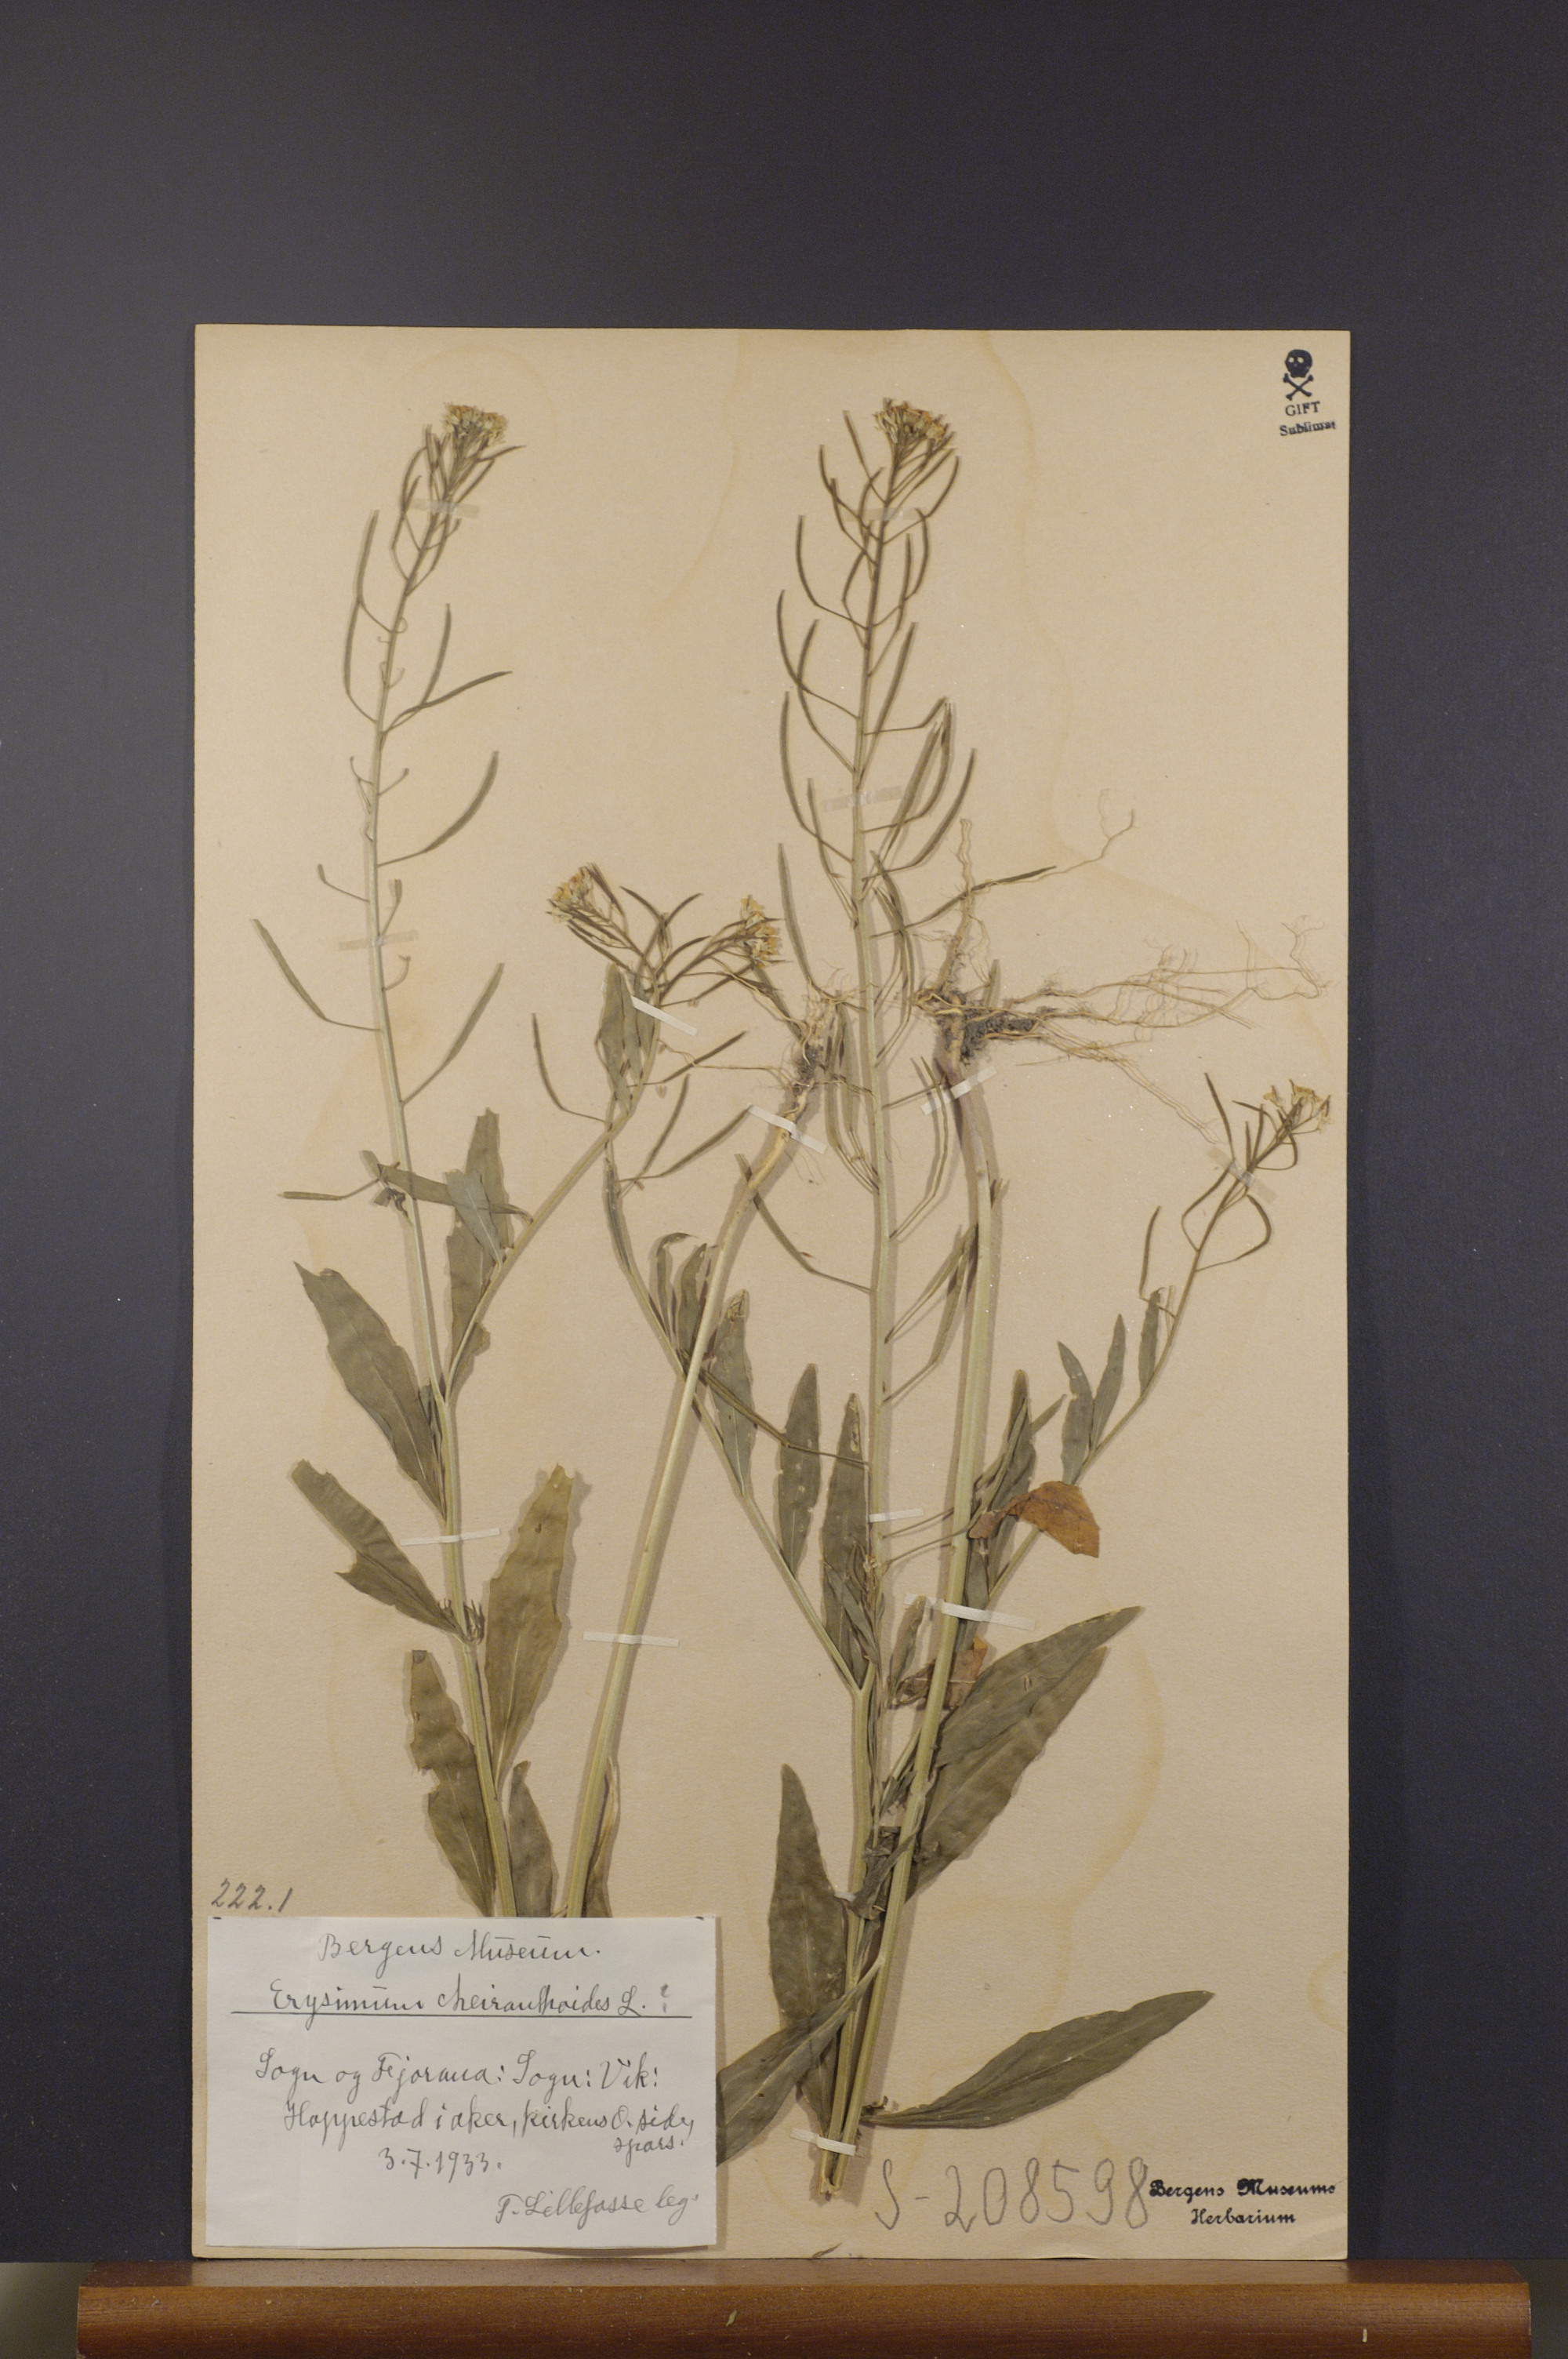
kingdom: Plantae
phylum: Tracheophyta
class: Magnoliopsida
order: Brassicales
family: Brassicaceae
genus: Erysimum
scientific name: Erysimum cheiranthoides
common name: Treacle mustard
